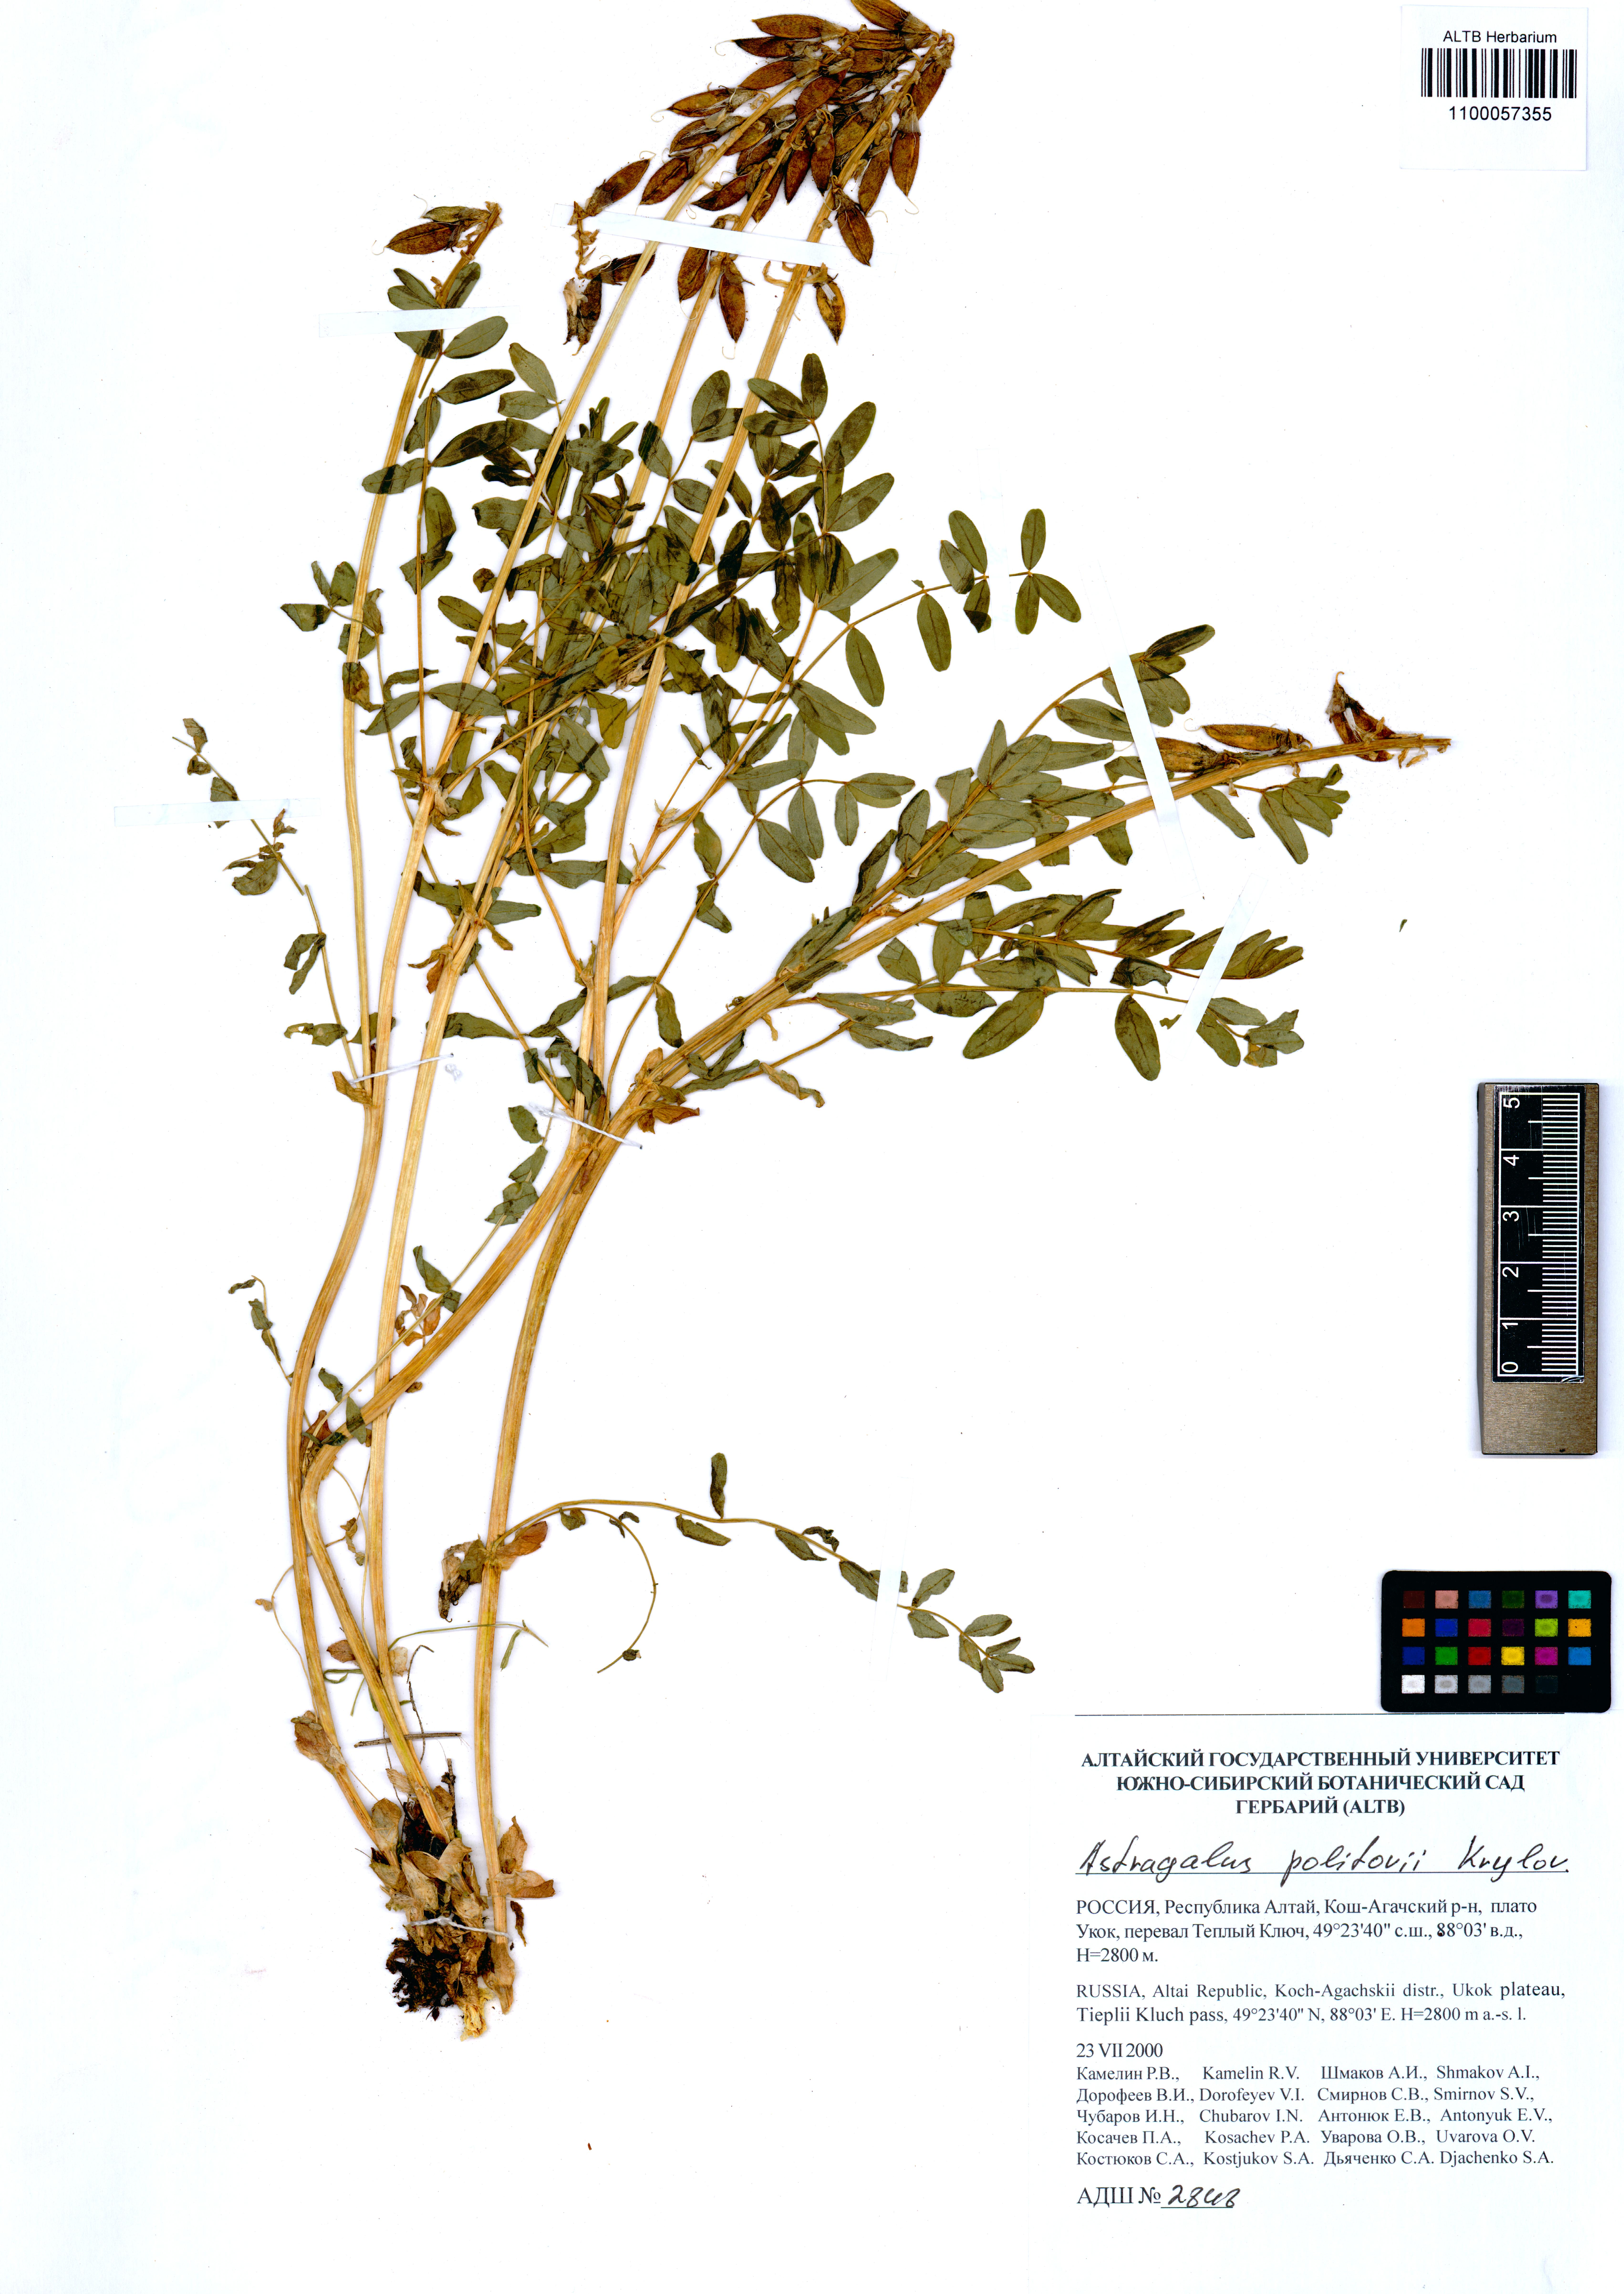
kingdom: Plantae
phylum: Tracheophyta
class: Magnoliopsida
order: Fabales
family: Fabaceae
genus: Astragalus
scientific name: Astragalus politovii
